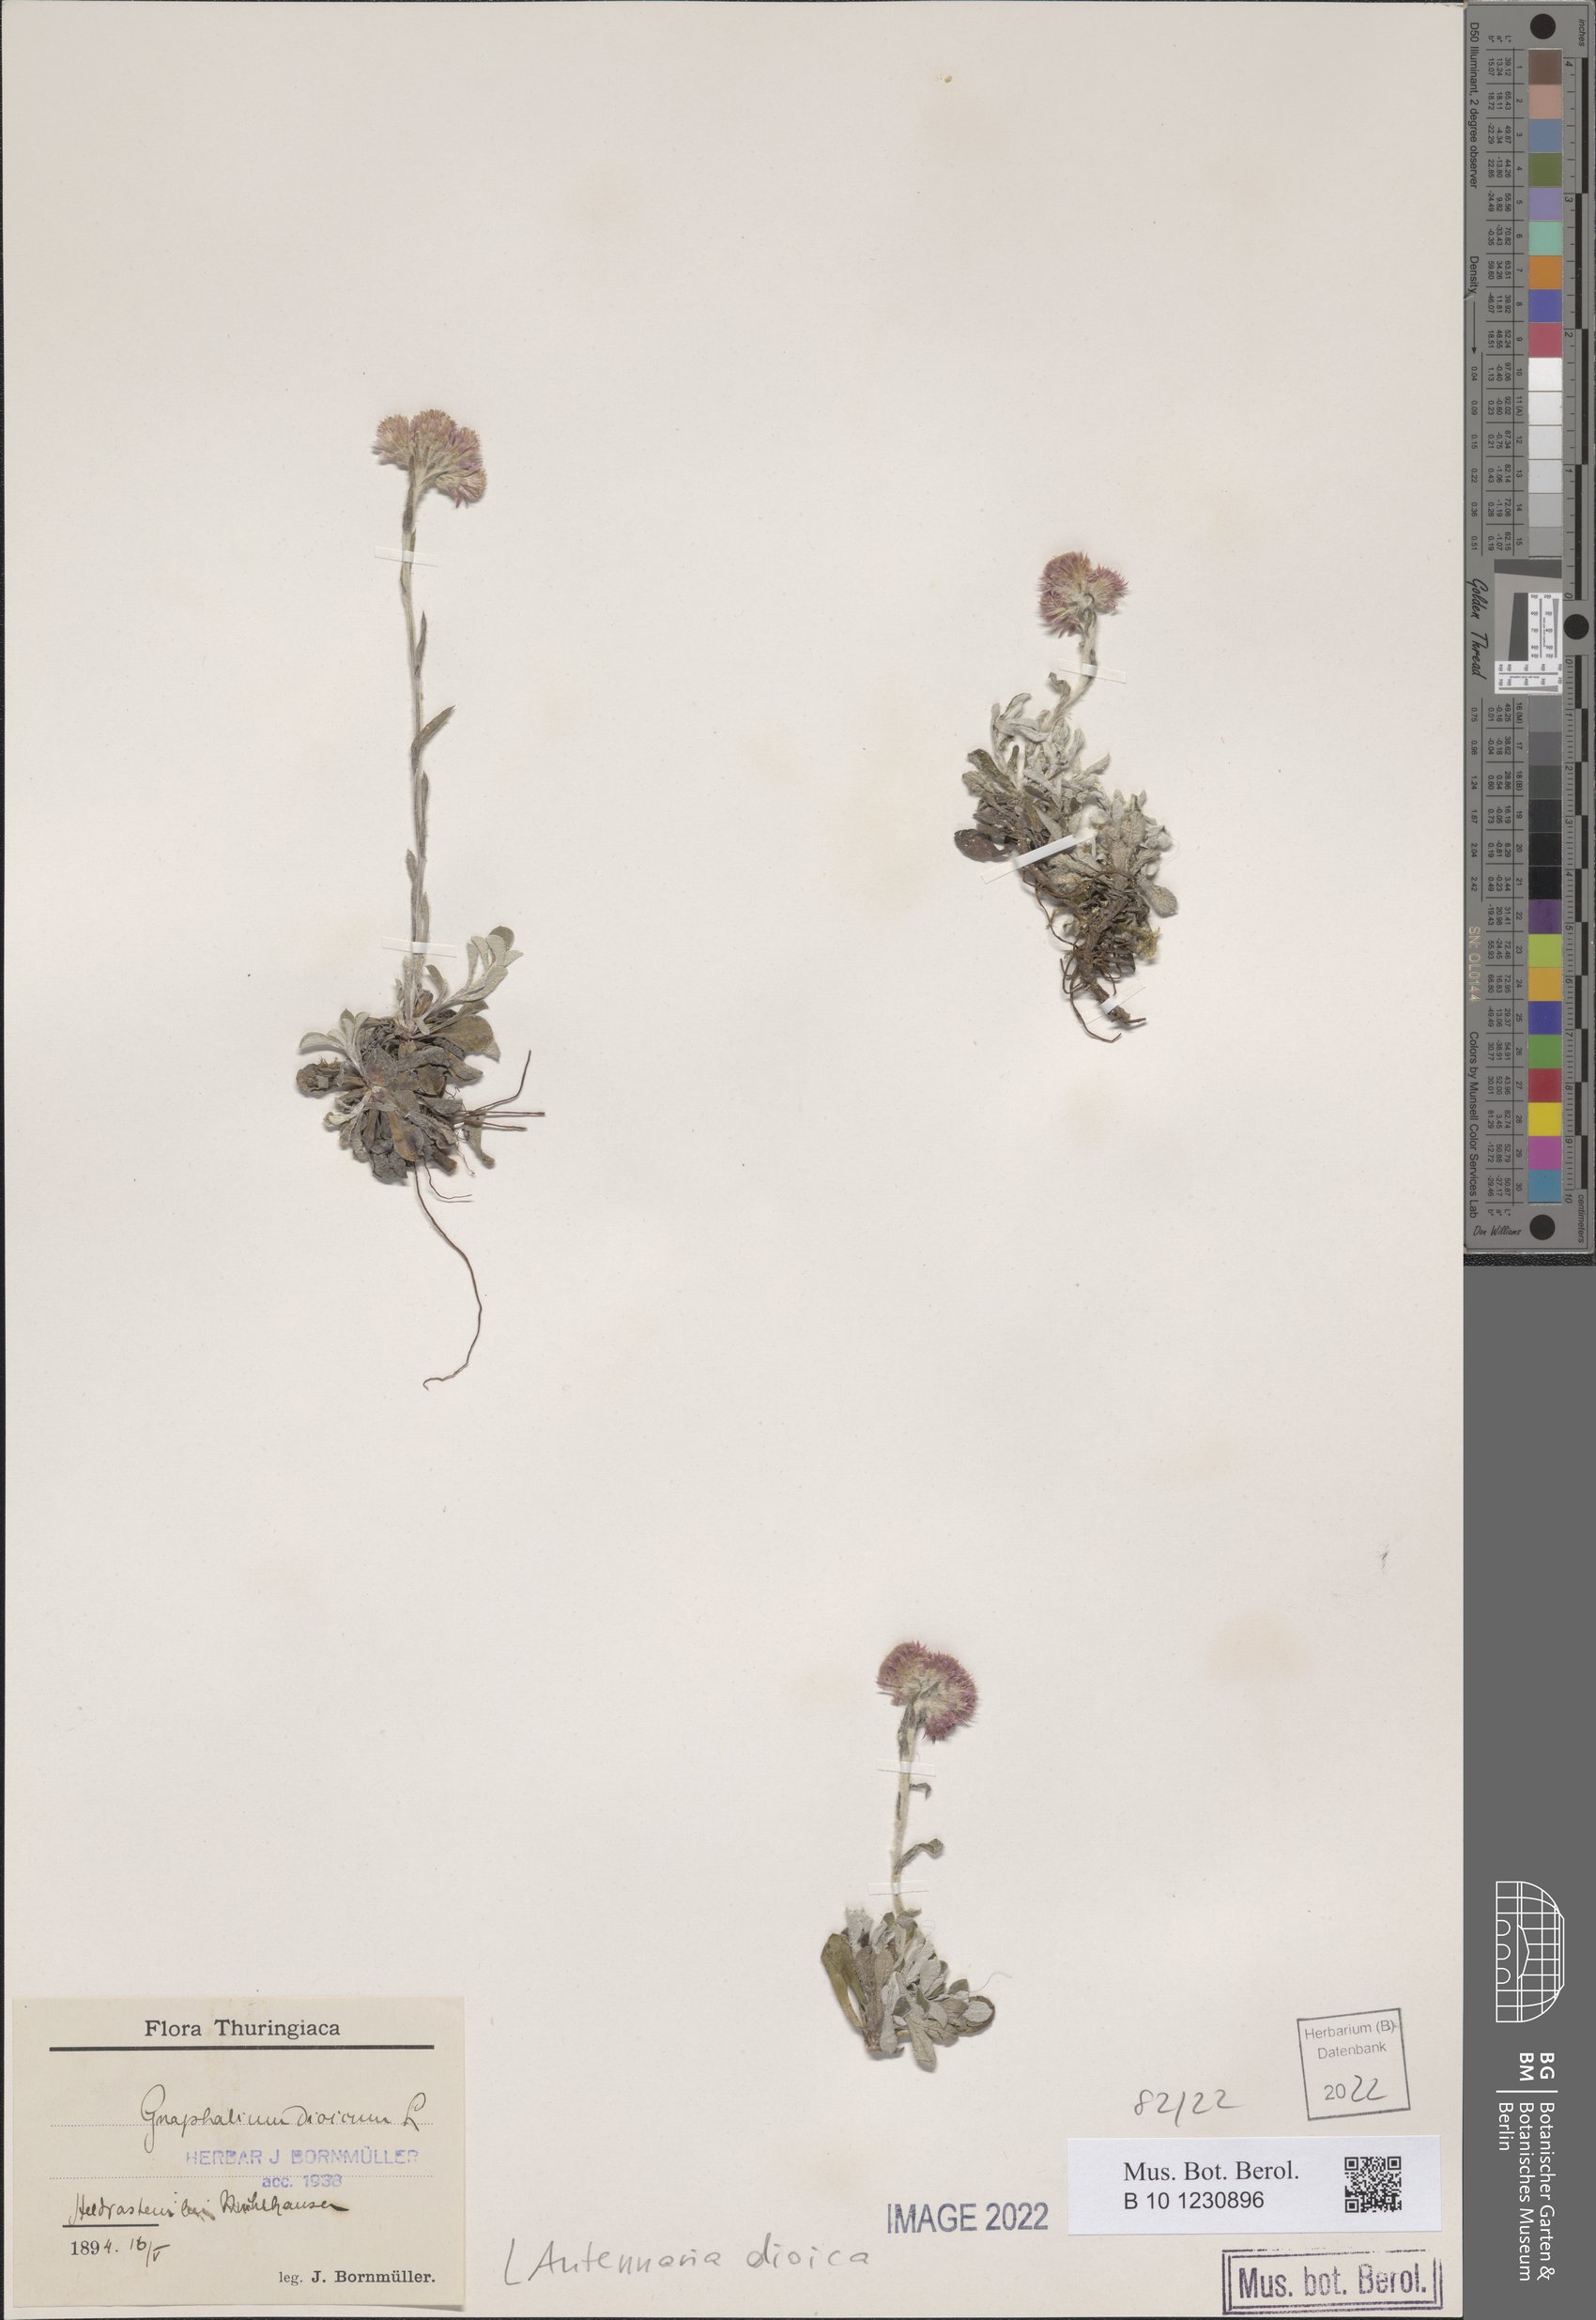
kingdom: Plantae
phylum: Tracheophyta
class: Magnoliopsida
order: Asterales
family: Asteraceae
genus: Antennaria
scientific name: Antennaria dioica
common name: Mountain everlasting
